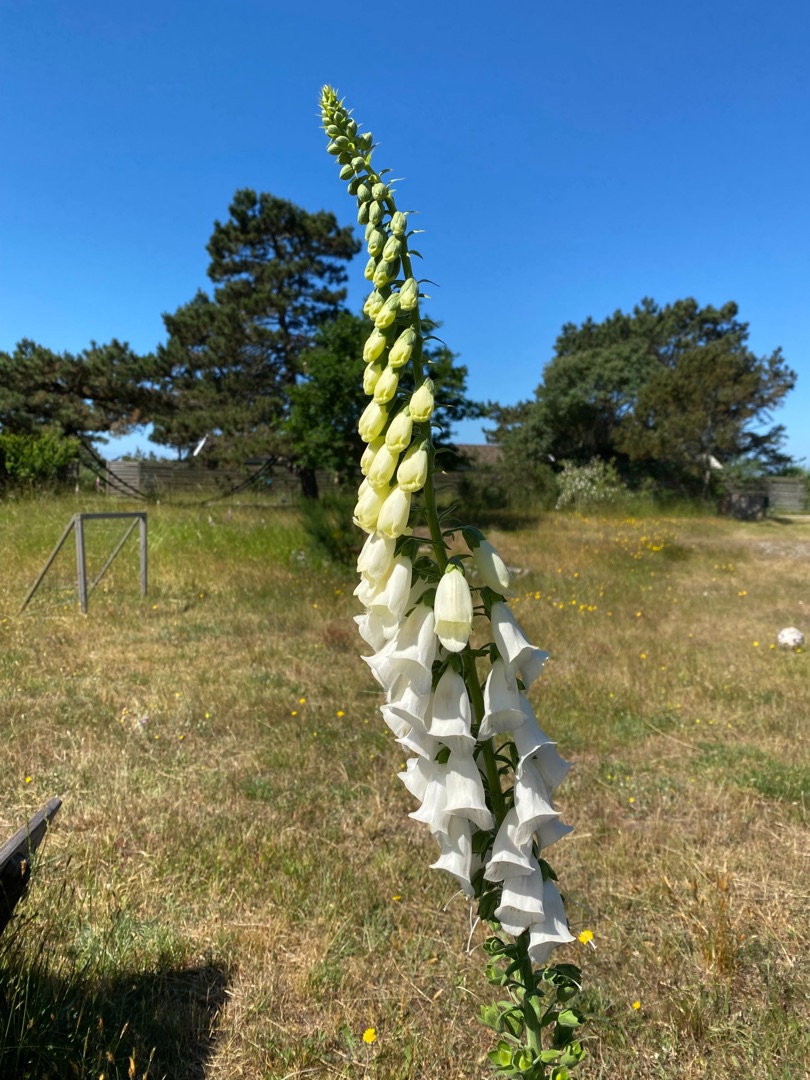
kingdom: Plantae
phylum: Tracheophyta
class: Magnoliopsida
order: Lamiales
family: Plantaginaceae
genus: Digitalis
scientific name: Digitalis purpurea
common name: Almindelig fingerbøl
